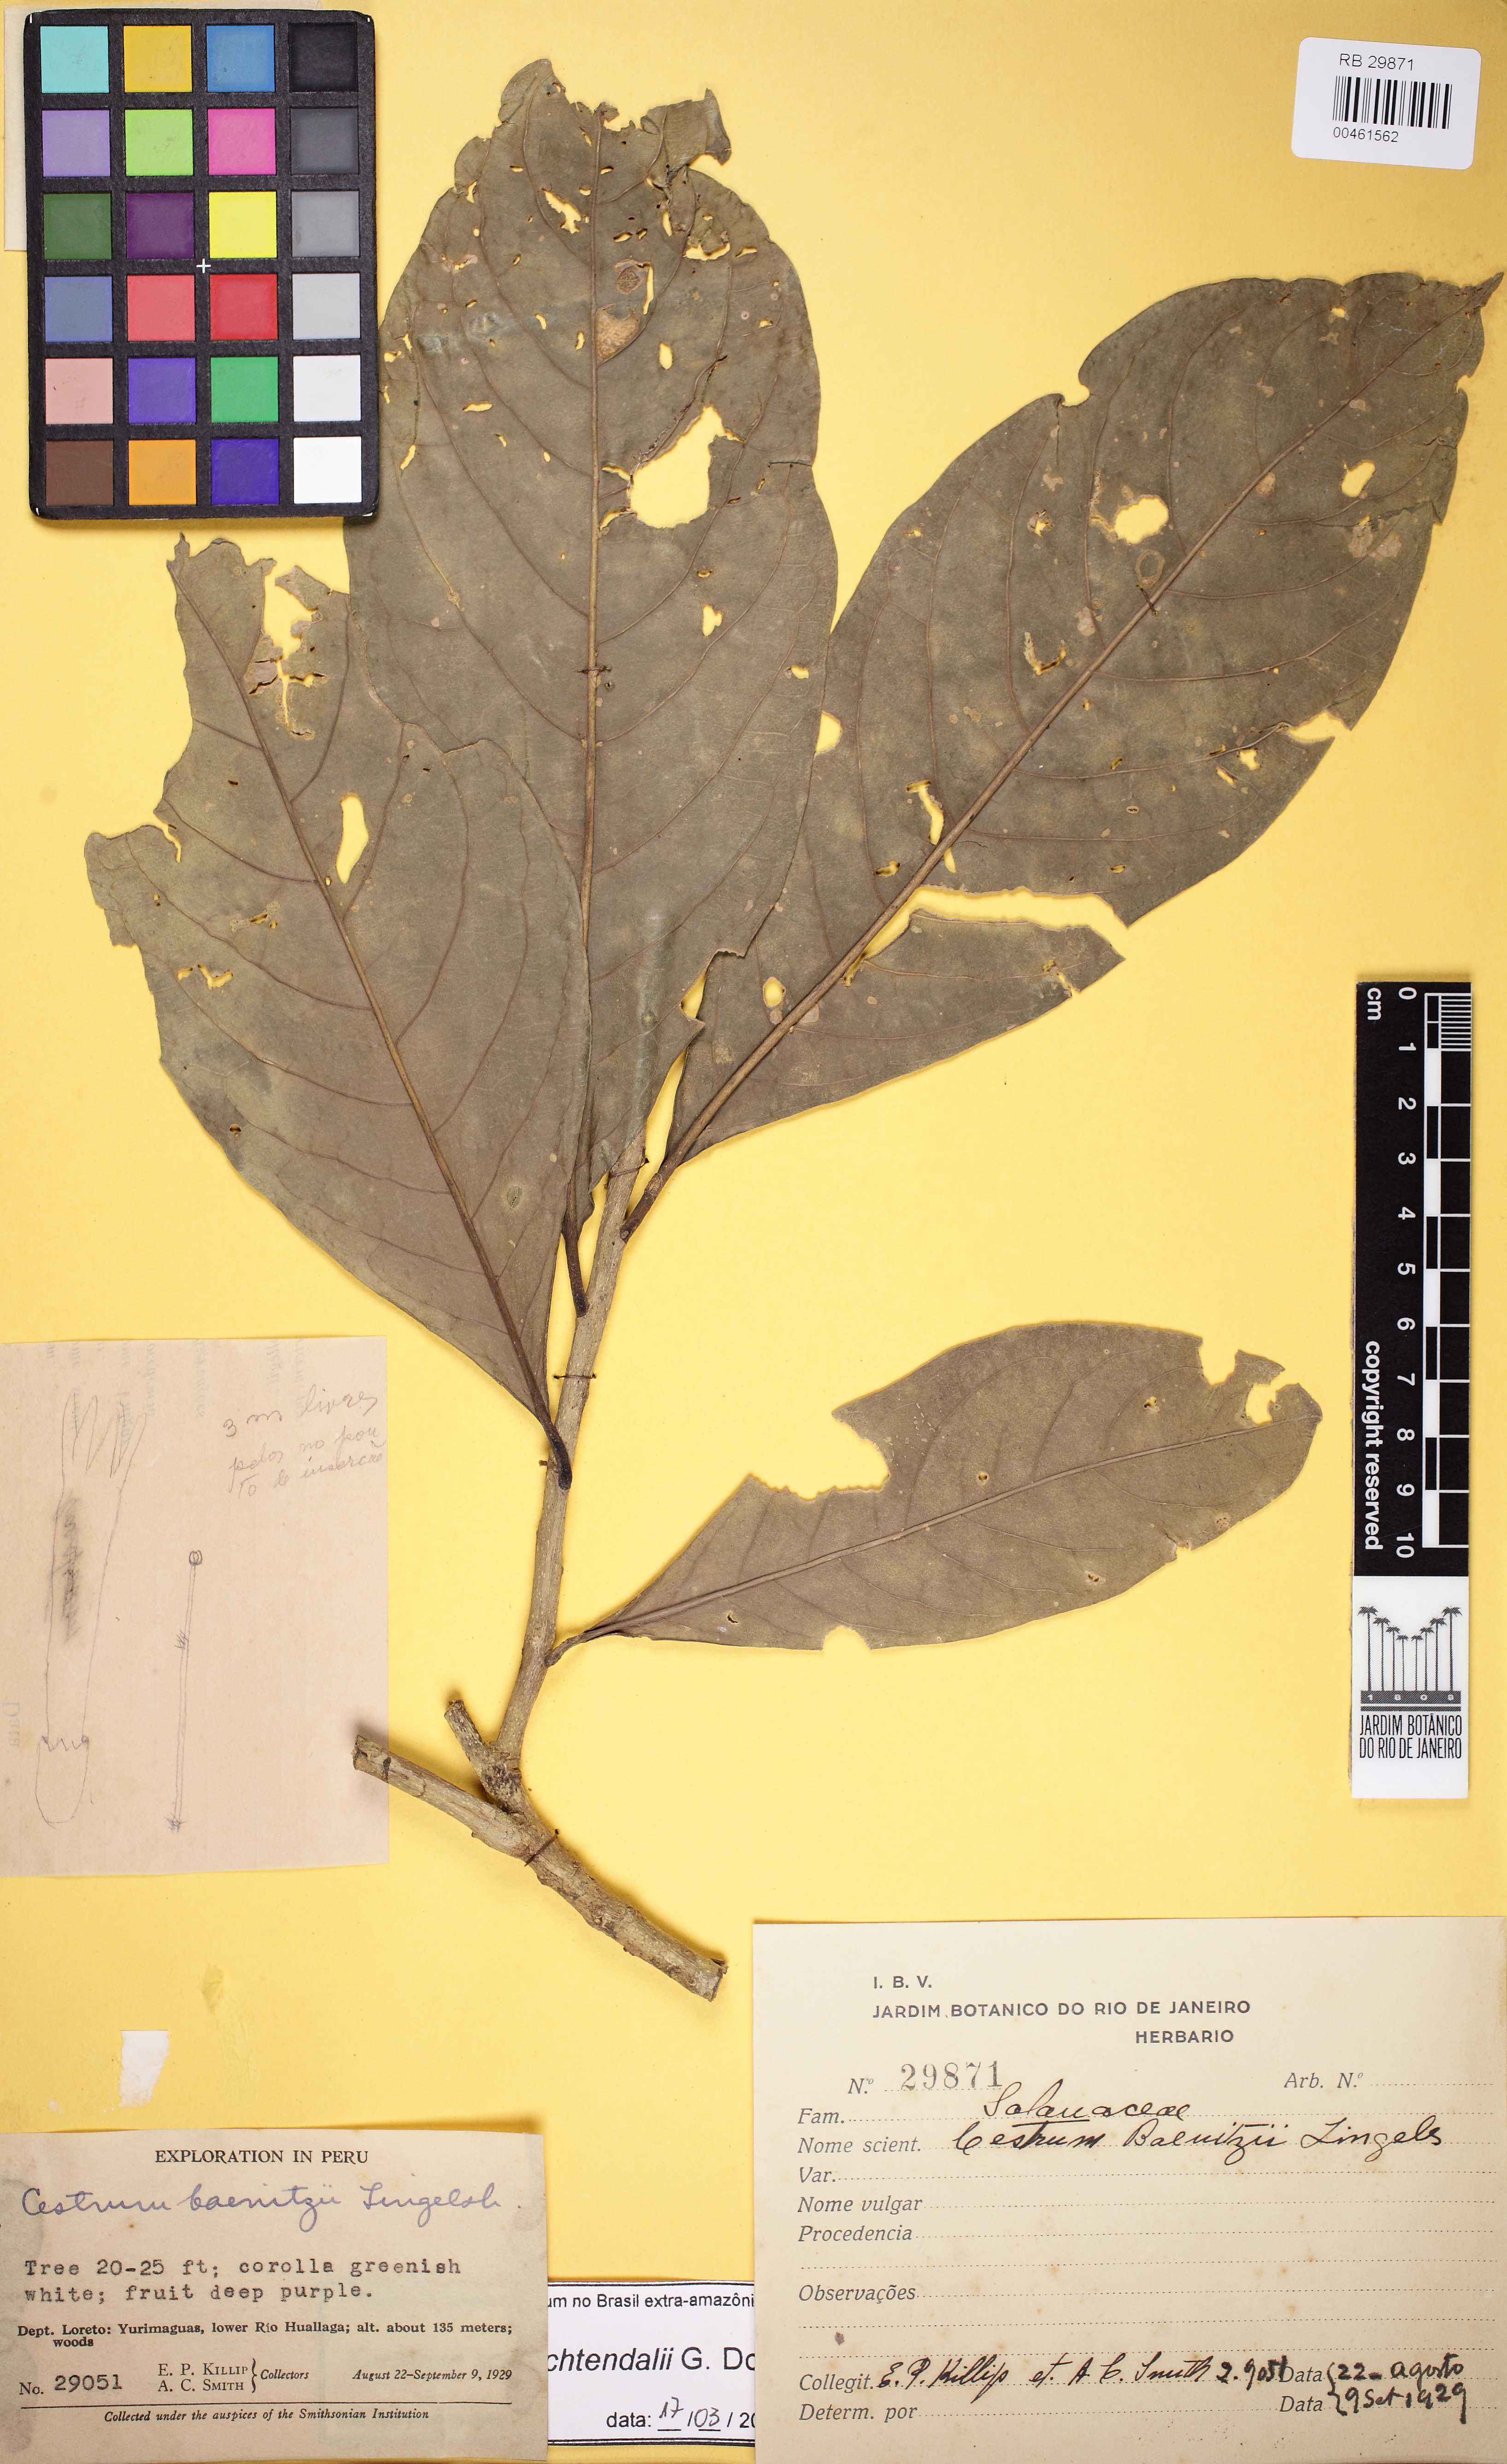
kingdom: Plantae
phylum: Tracheophyta
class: Magnoliopsida
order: Solanales
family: Solanaceae
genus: Cestrum
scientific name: Cestrum schlechtendalii
